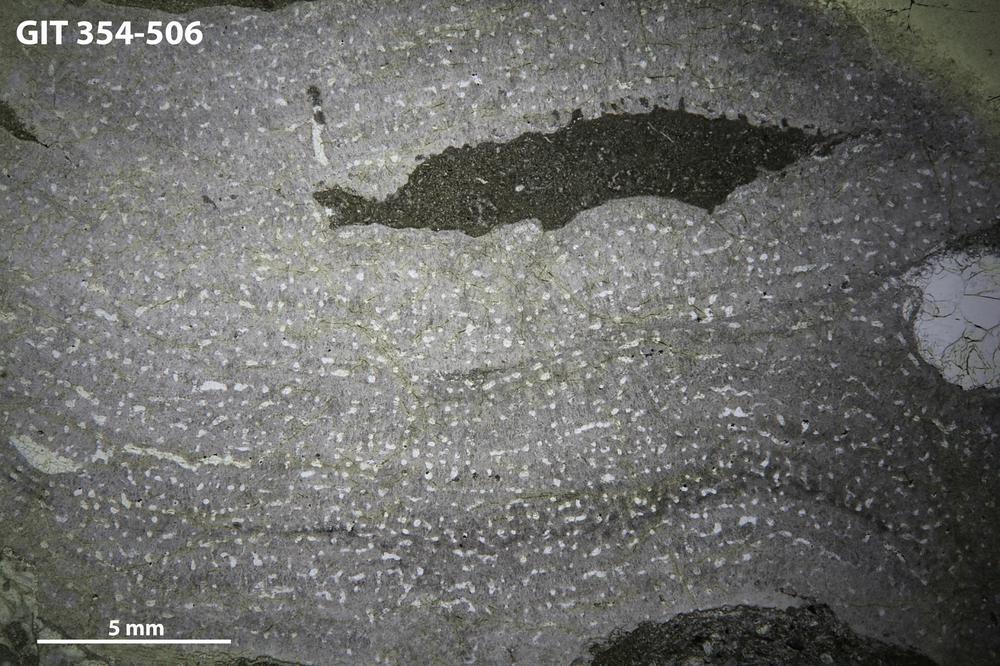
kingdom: Animalia
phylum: Porifera
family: Stromatoporidae
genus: Eostromatopora
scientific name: Eostromatopora
